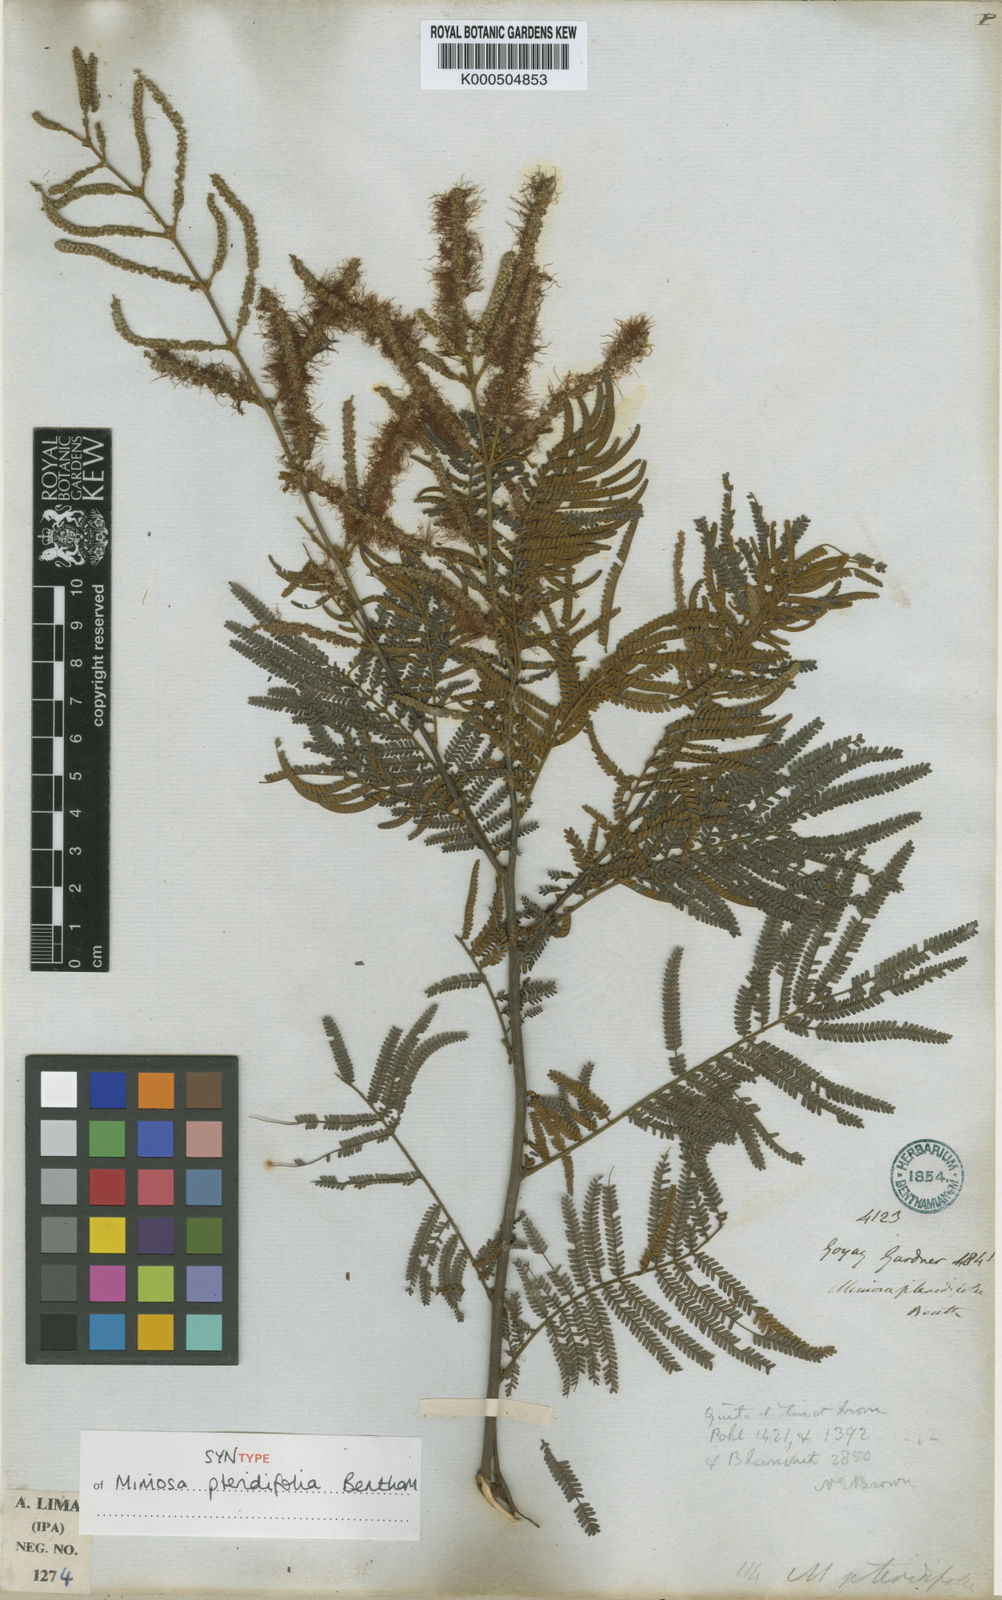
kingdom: Plantae
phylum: Tracheophyta
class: Magnoliopsida
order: Fabales
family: Fabaceae
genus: Mimosa
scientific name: Mimosa pteridifolia
